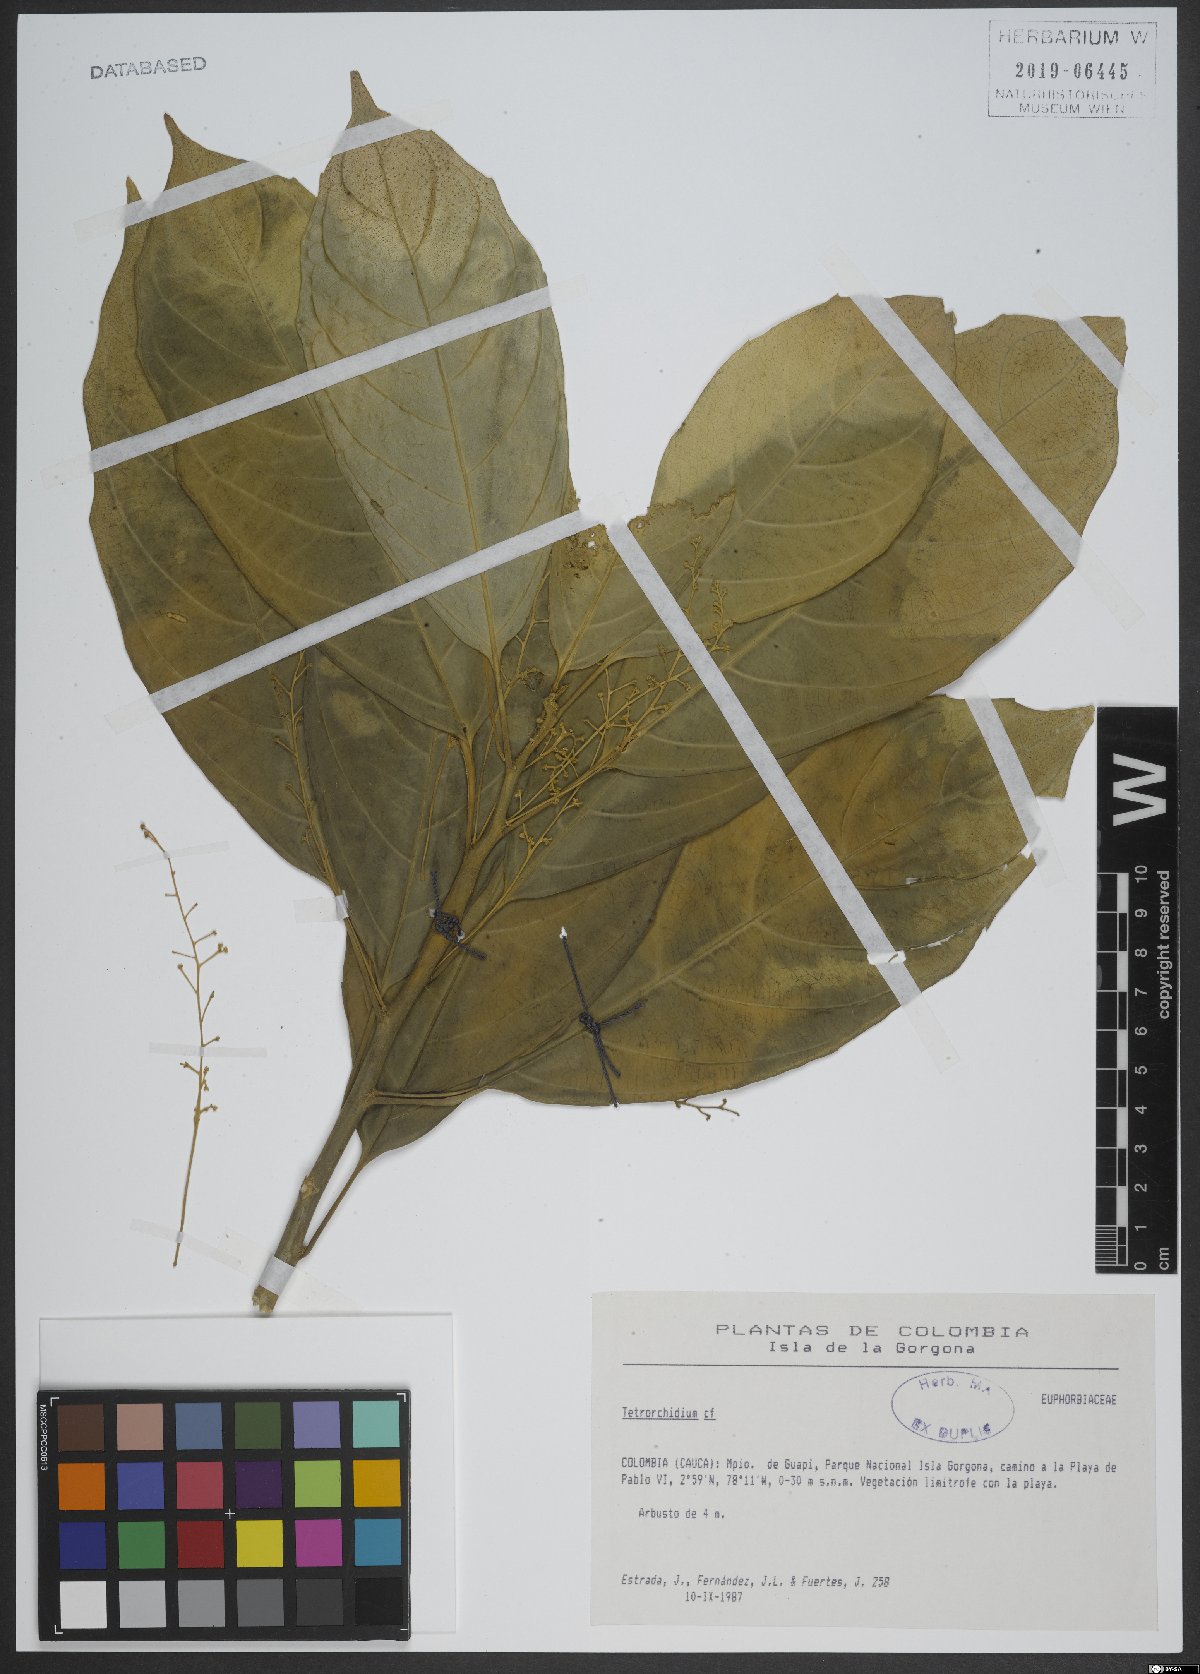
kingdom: Plantae
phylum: Tracheophyta
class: Magnoliopsida
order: Malpighiales
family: Euphorbiaceae
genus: Tetrorchidium
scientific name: Tetrorchidium
